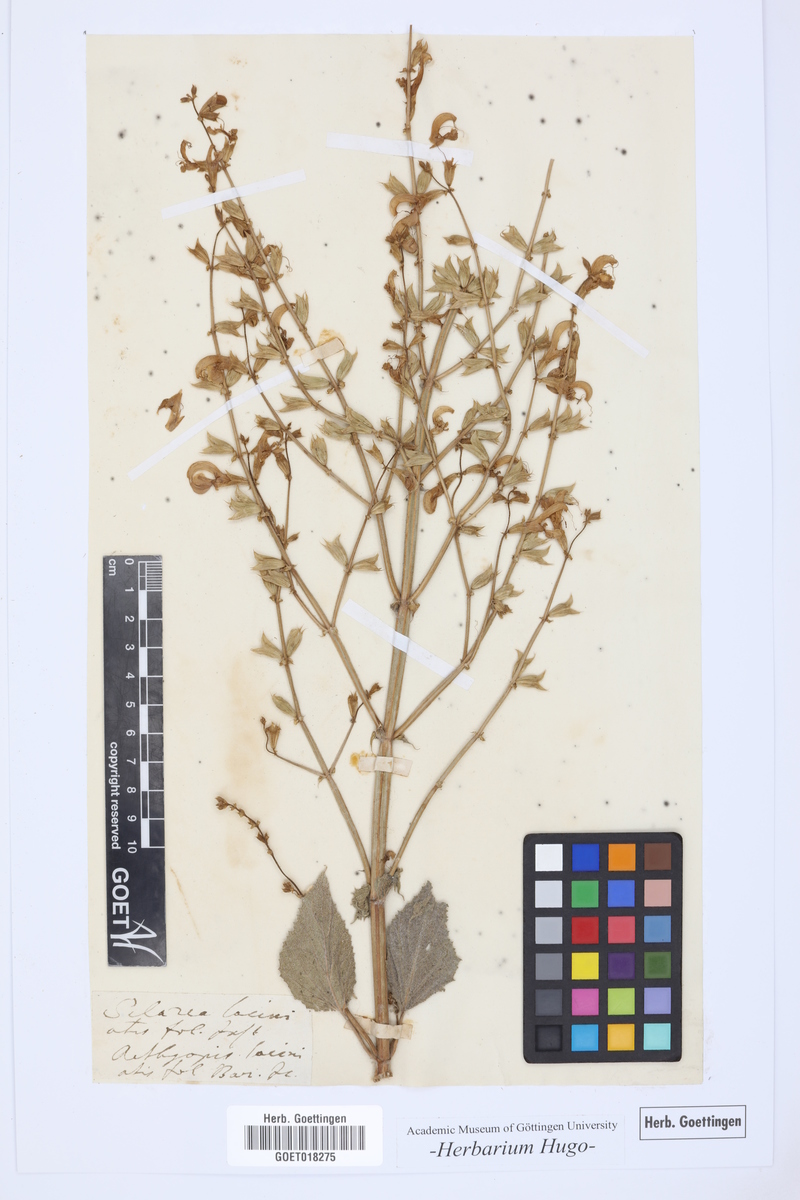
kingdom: Plantae
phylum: Tracheophyta
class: Magnoliopsida
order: Lamiales
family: Lamiaceae
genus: Salvia
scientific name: Salvia aethiopis
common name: Mediterranean sage
